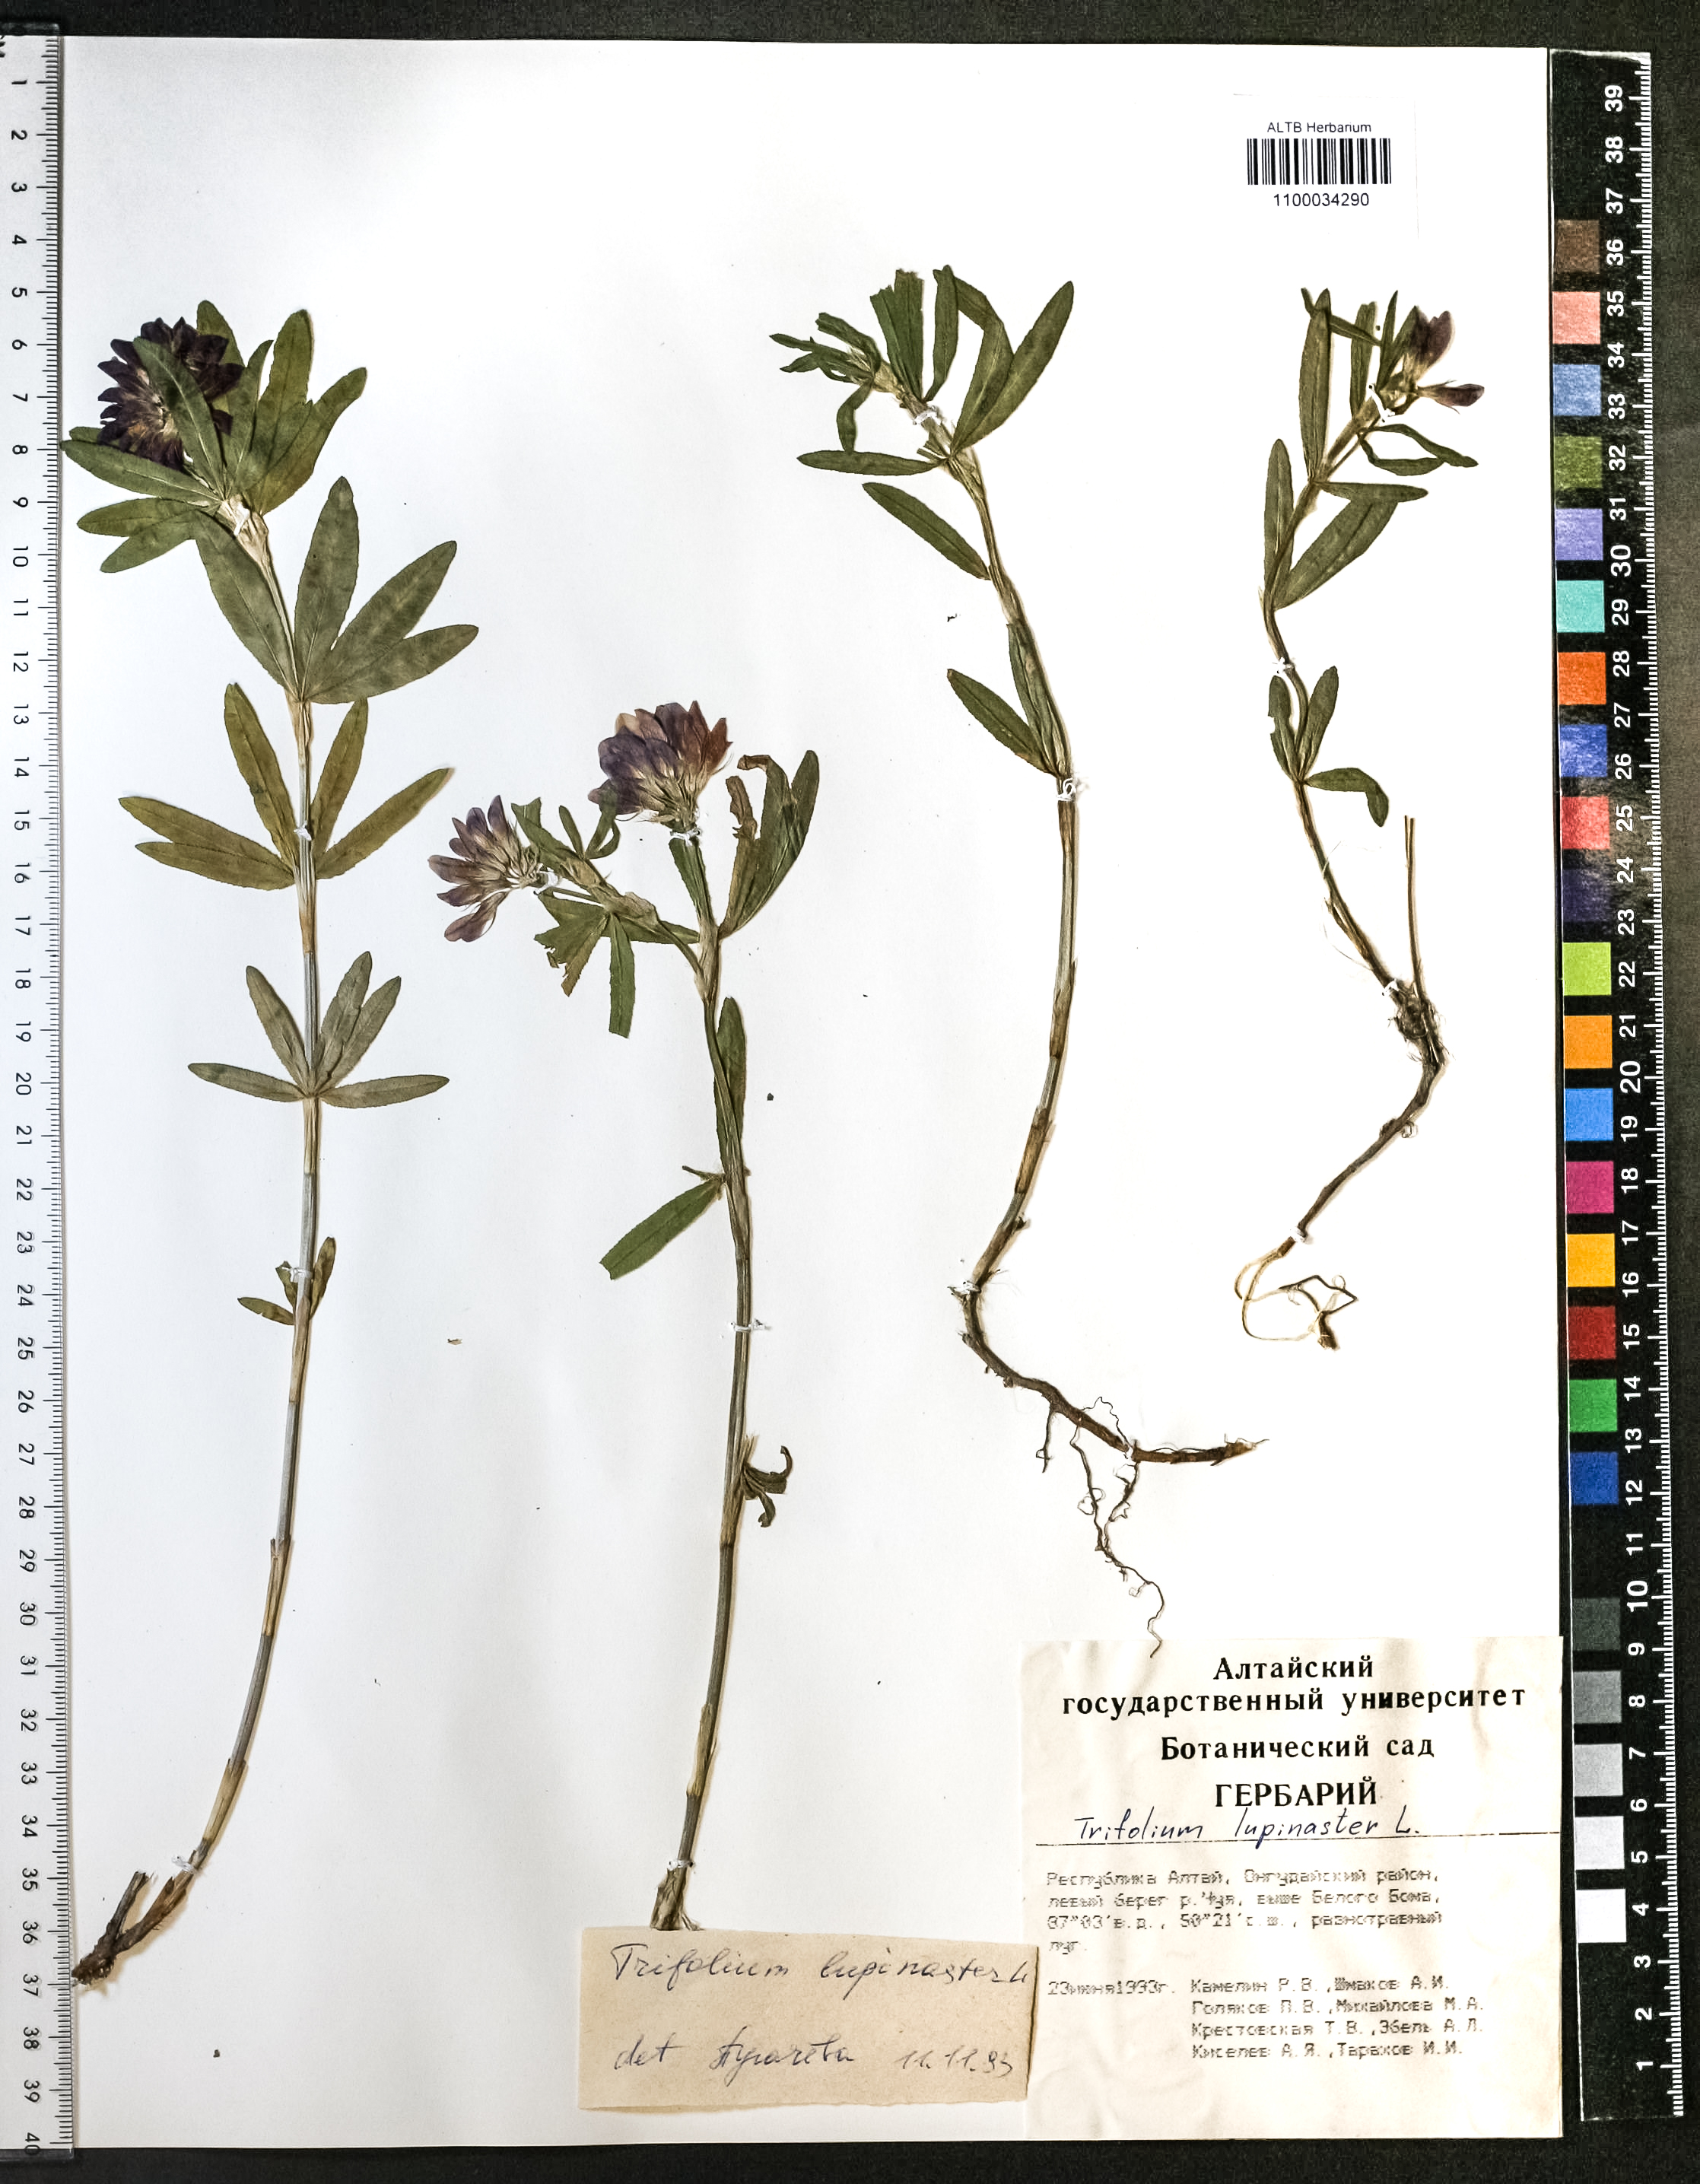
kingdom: Plantae
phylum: Tracheophyta
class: Magnoliopsida
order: Fabales
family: Fabaceae
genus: Trifolium
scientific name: Trifolium lupinaster
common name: Lupine clover
